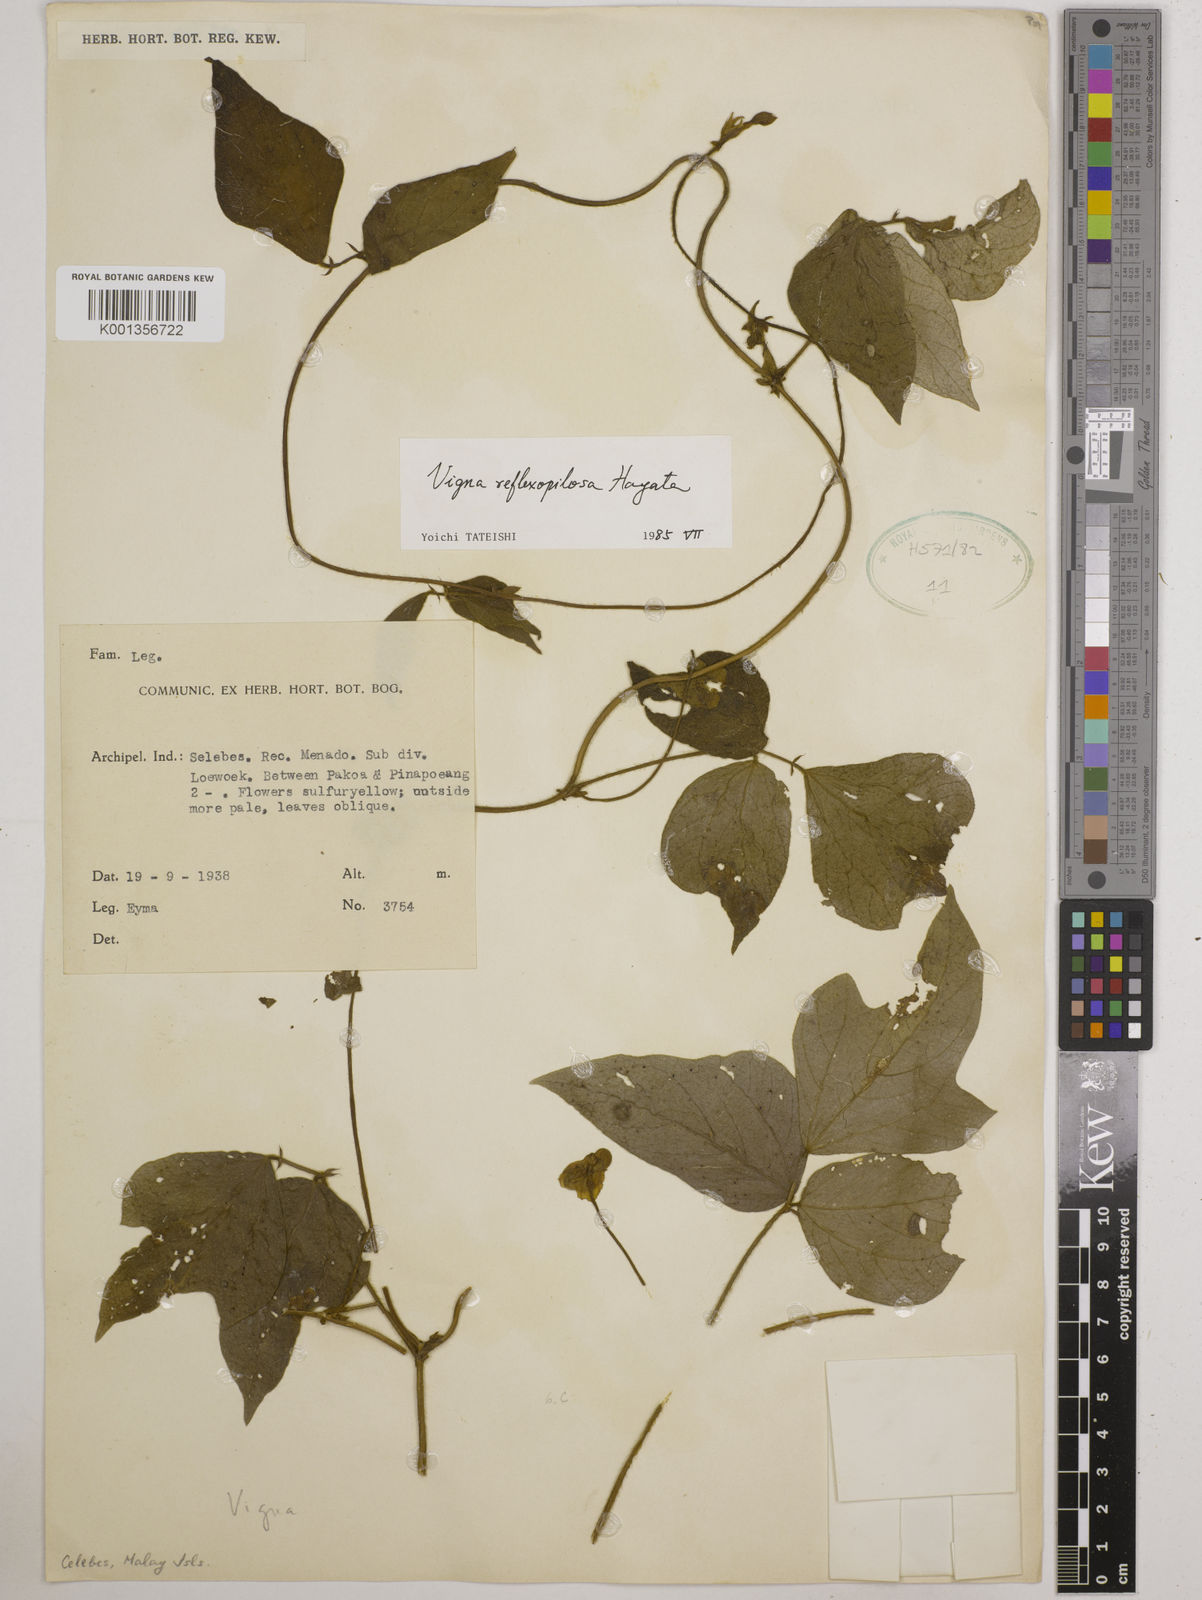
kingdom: Plantae
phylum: Tracheophyta
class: Magnoliopsida
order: Fabales
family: Fabaceae
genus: Vigna
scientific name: Vigna reflexopilosa
